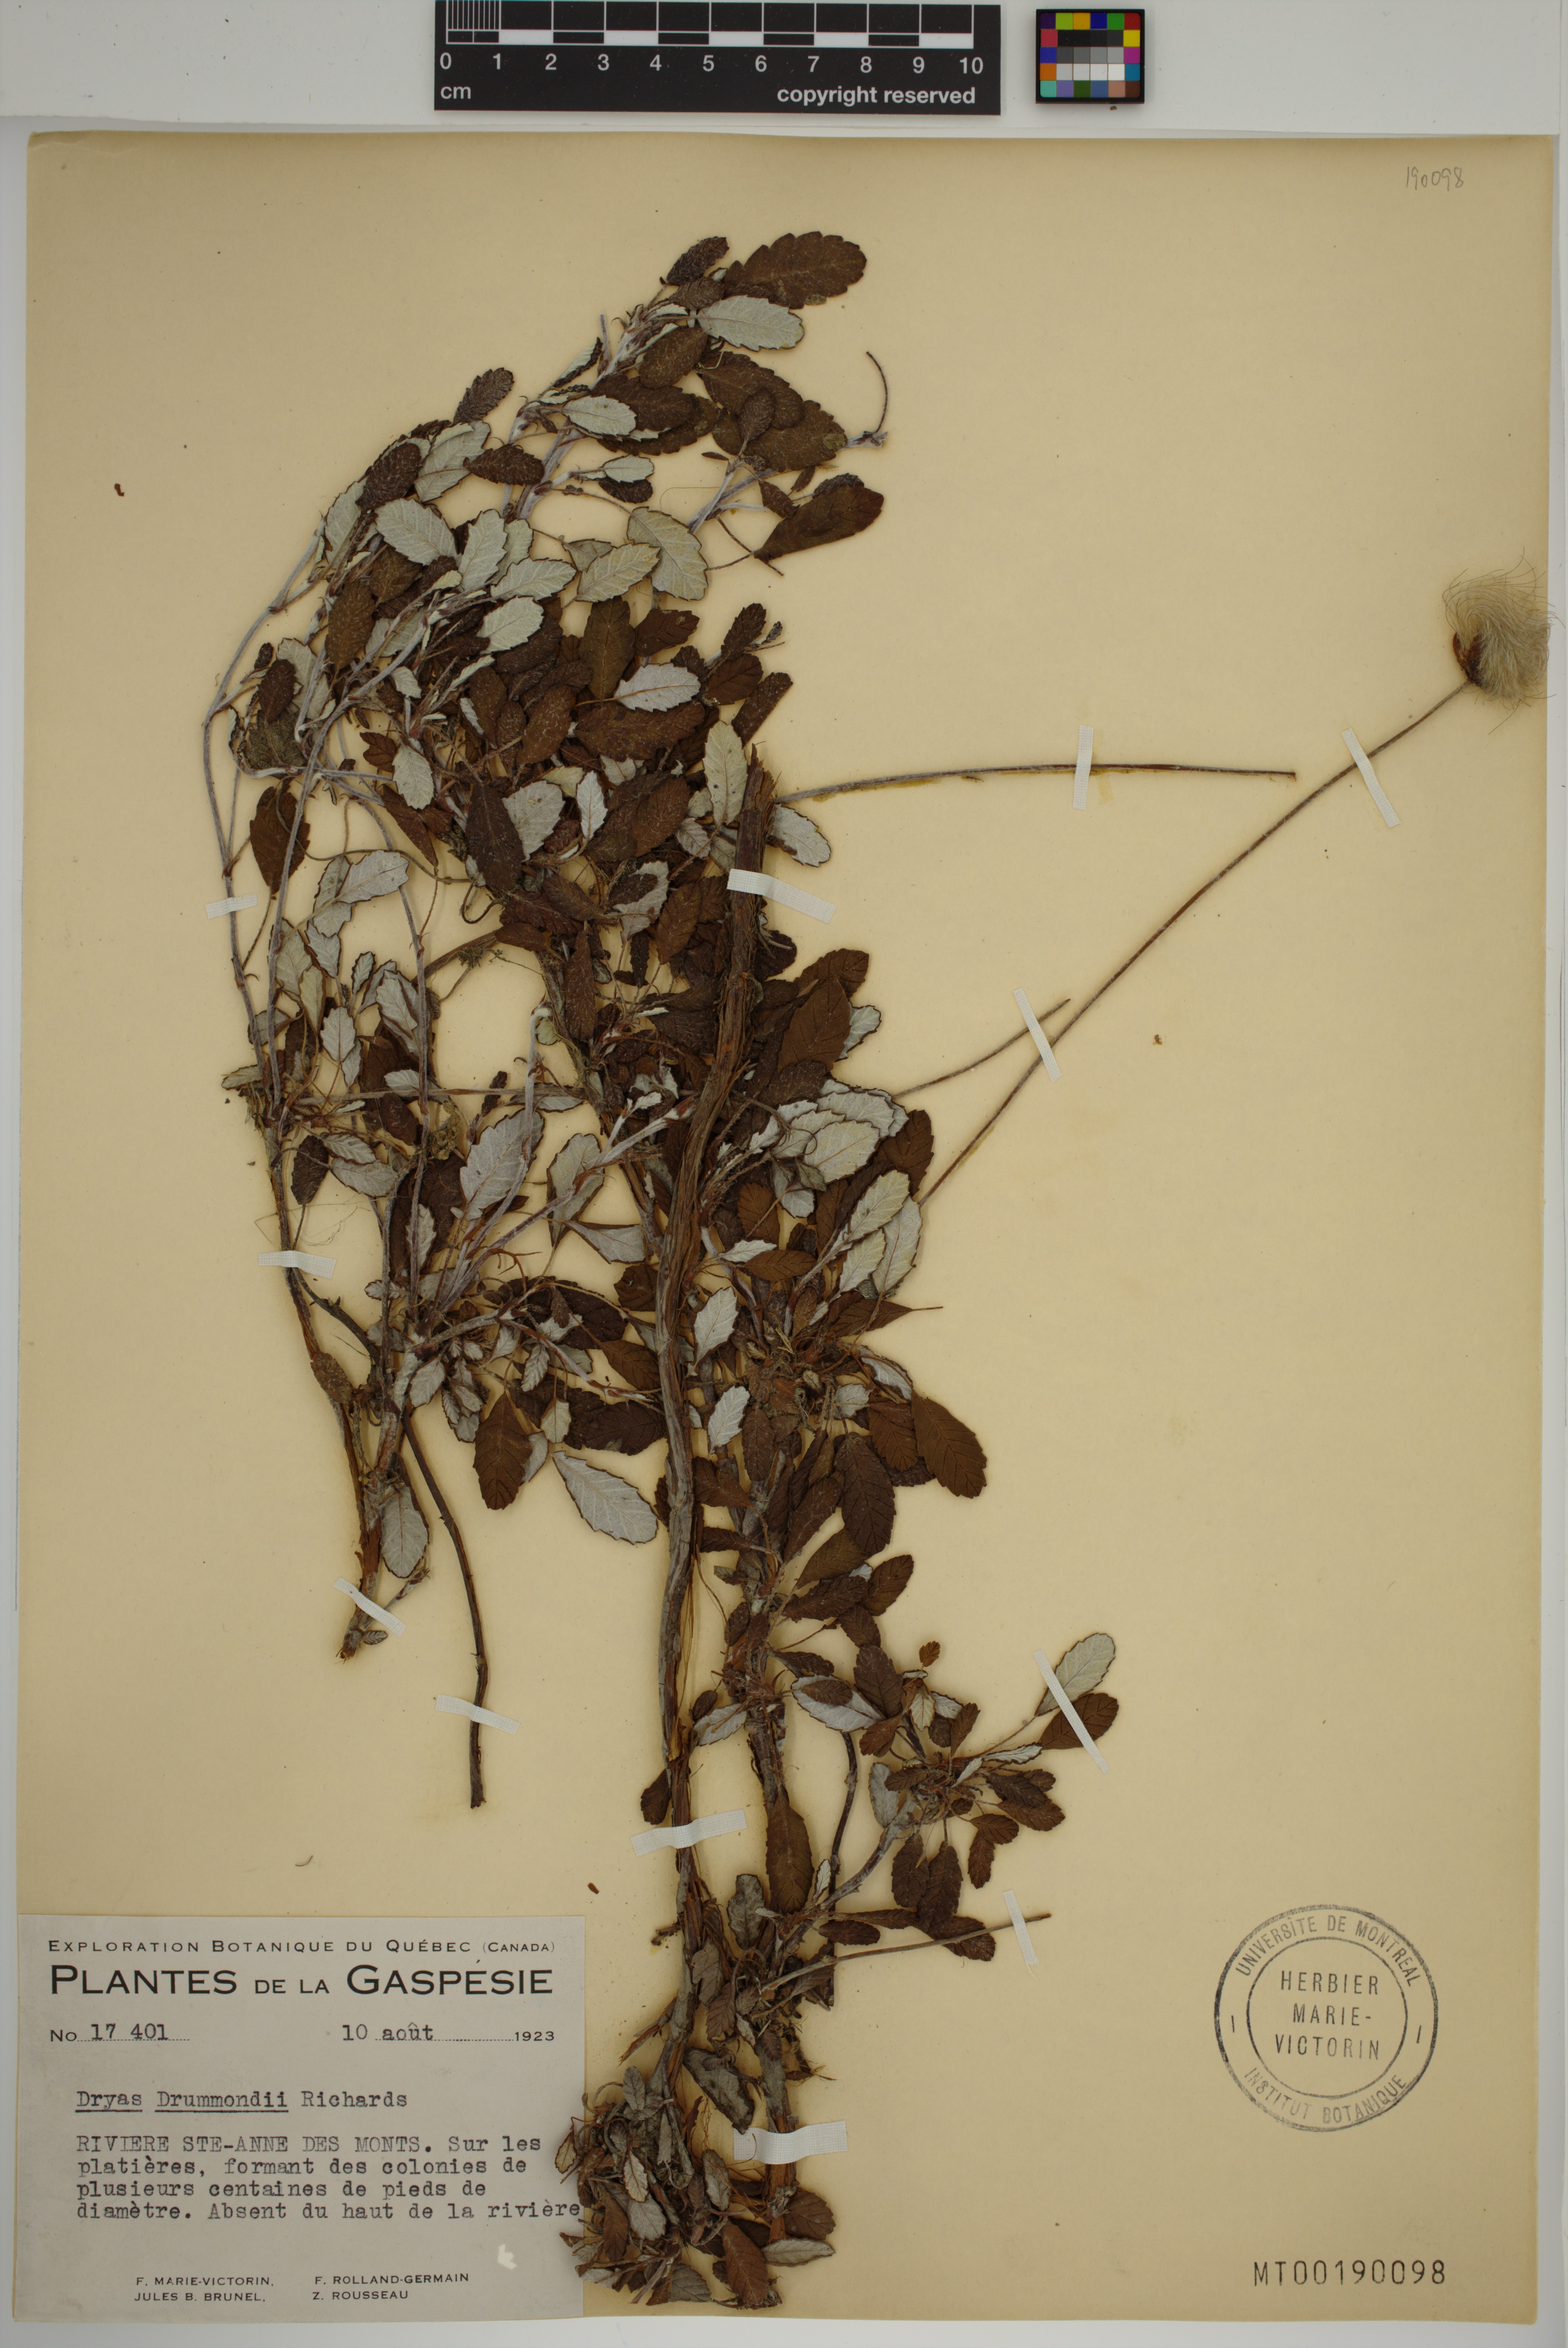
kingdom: Plantae
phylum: Tracheophyta
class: Magnoliopsida
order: Rosales
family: Rosaceae
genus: Dryas
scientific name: Dryas drummondii
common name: Drummond's dryad
